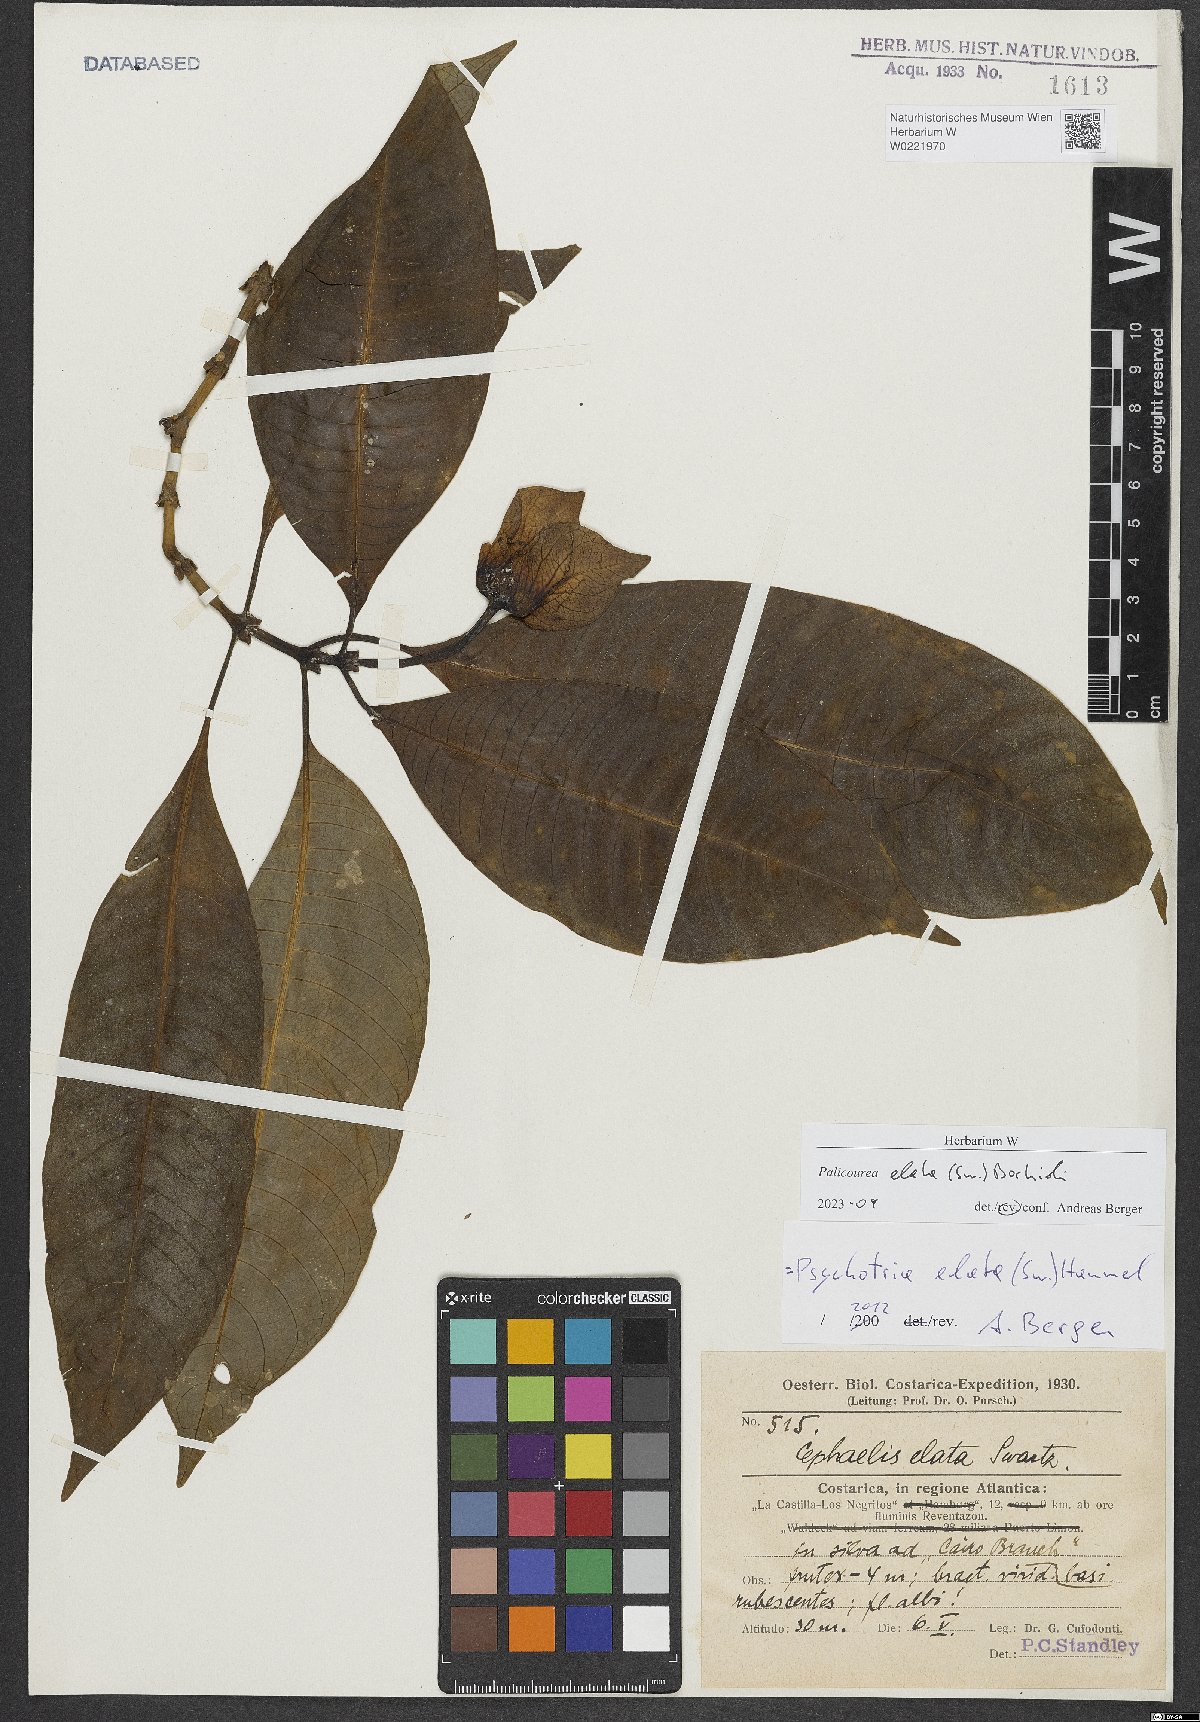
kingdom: Plantae
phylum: Tracheophyta
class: Magnoliopsida
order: Gentianales
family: Rubiaceae
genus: Palicourea
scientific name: Palicourea elata
